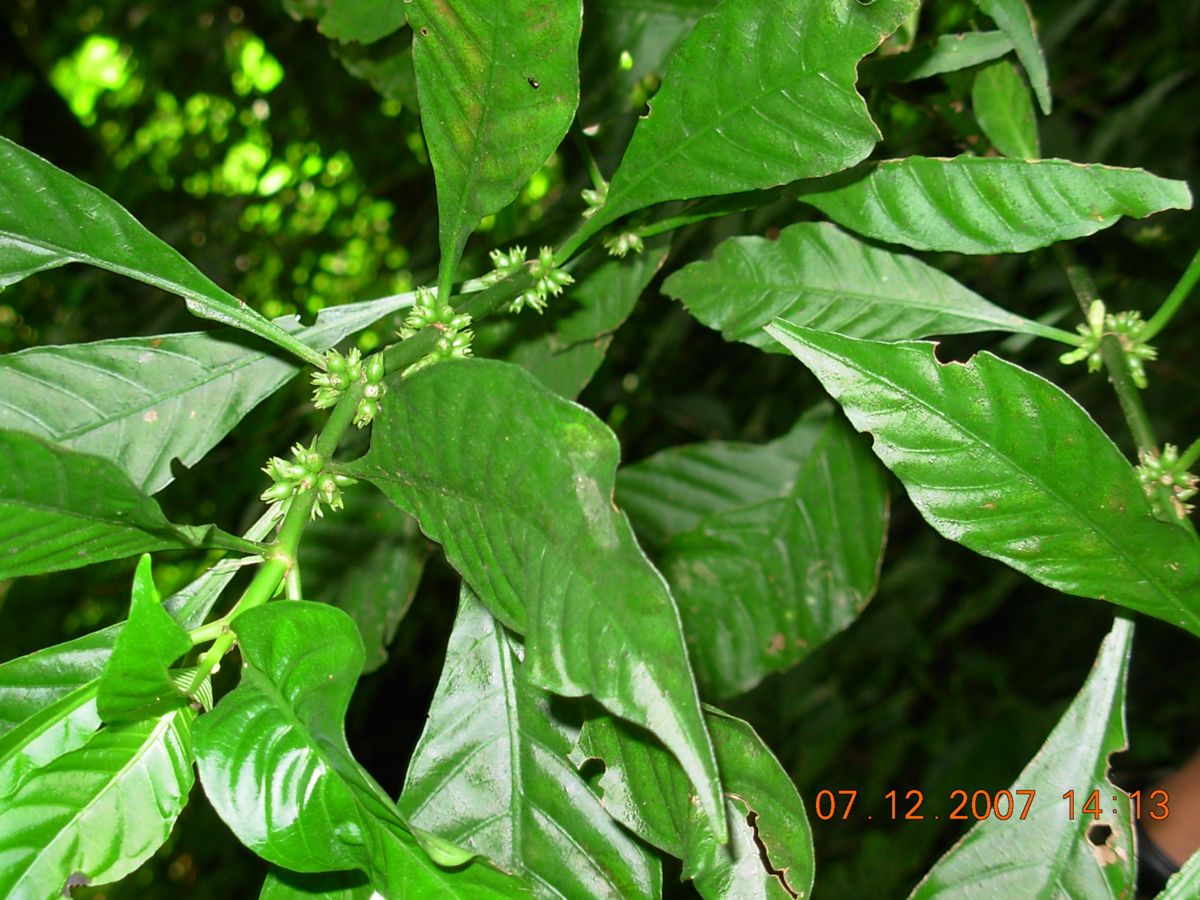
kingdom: Plantae
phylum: Tracheophyta
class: Magnoliopsida
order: Gentianales
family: Rubiaceae
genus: Hoffmannia
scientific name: Hoffmannia psychotriifolia
